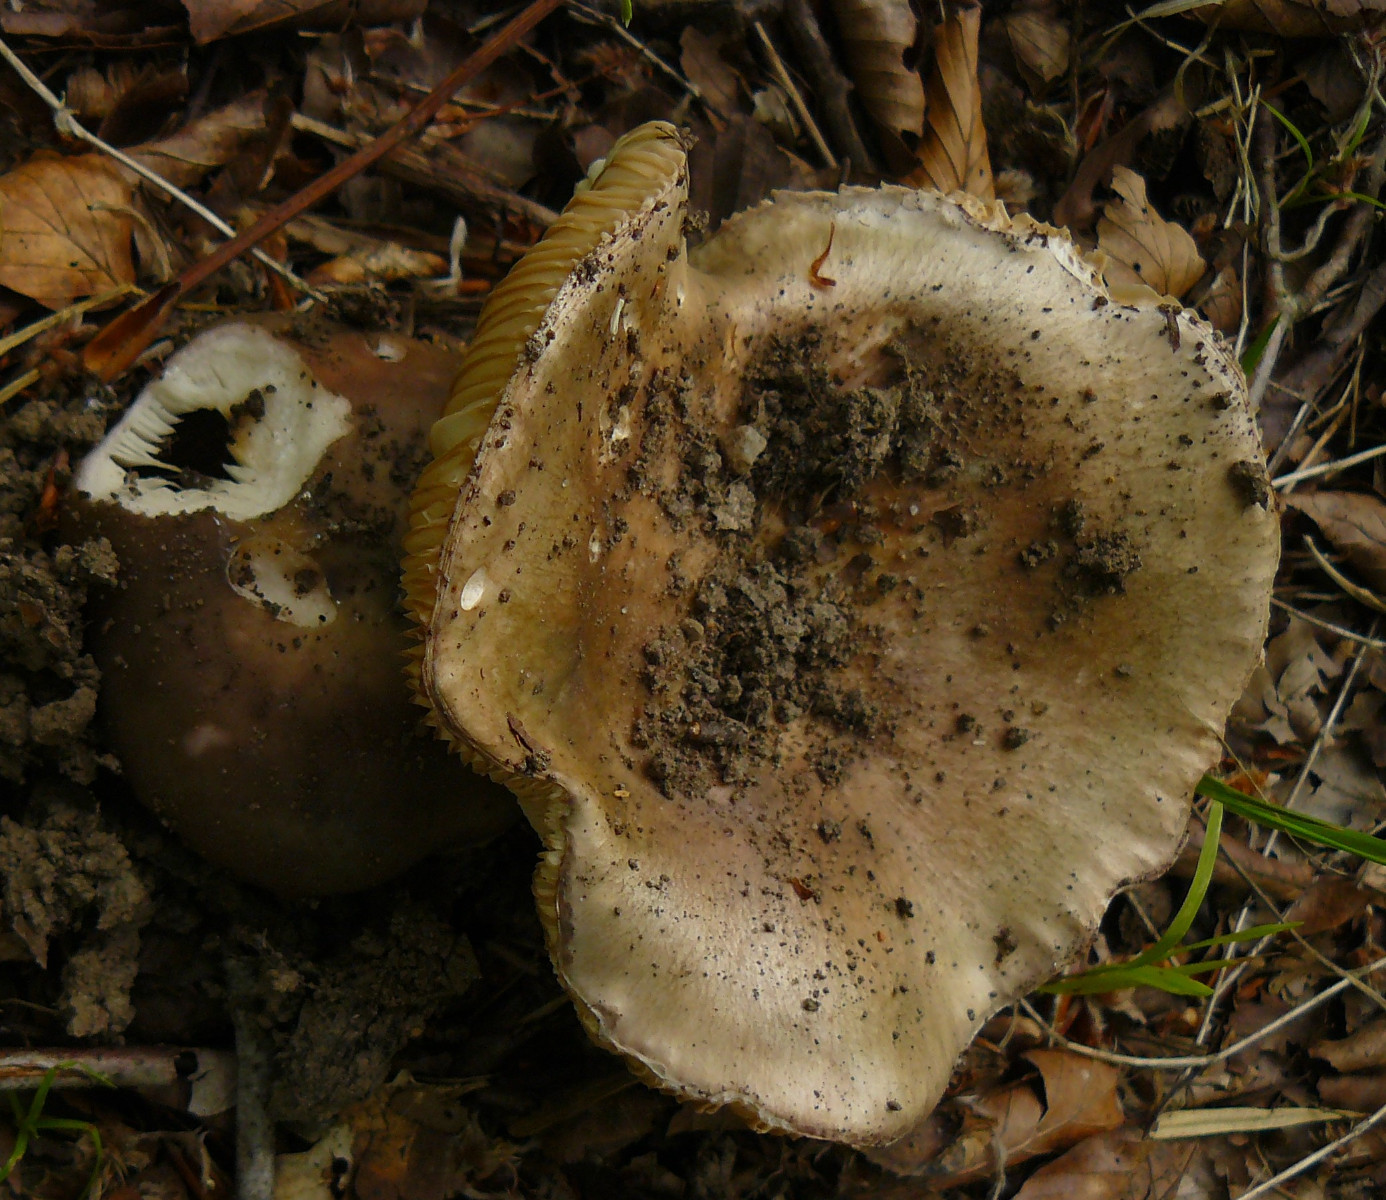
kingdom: Fungi
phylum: Basidiomycota
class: Agaricomycetes
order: Russulales
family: Russulaceae
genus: Russula
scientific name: Russula cyanoxantha
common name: broget skørhat
